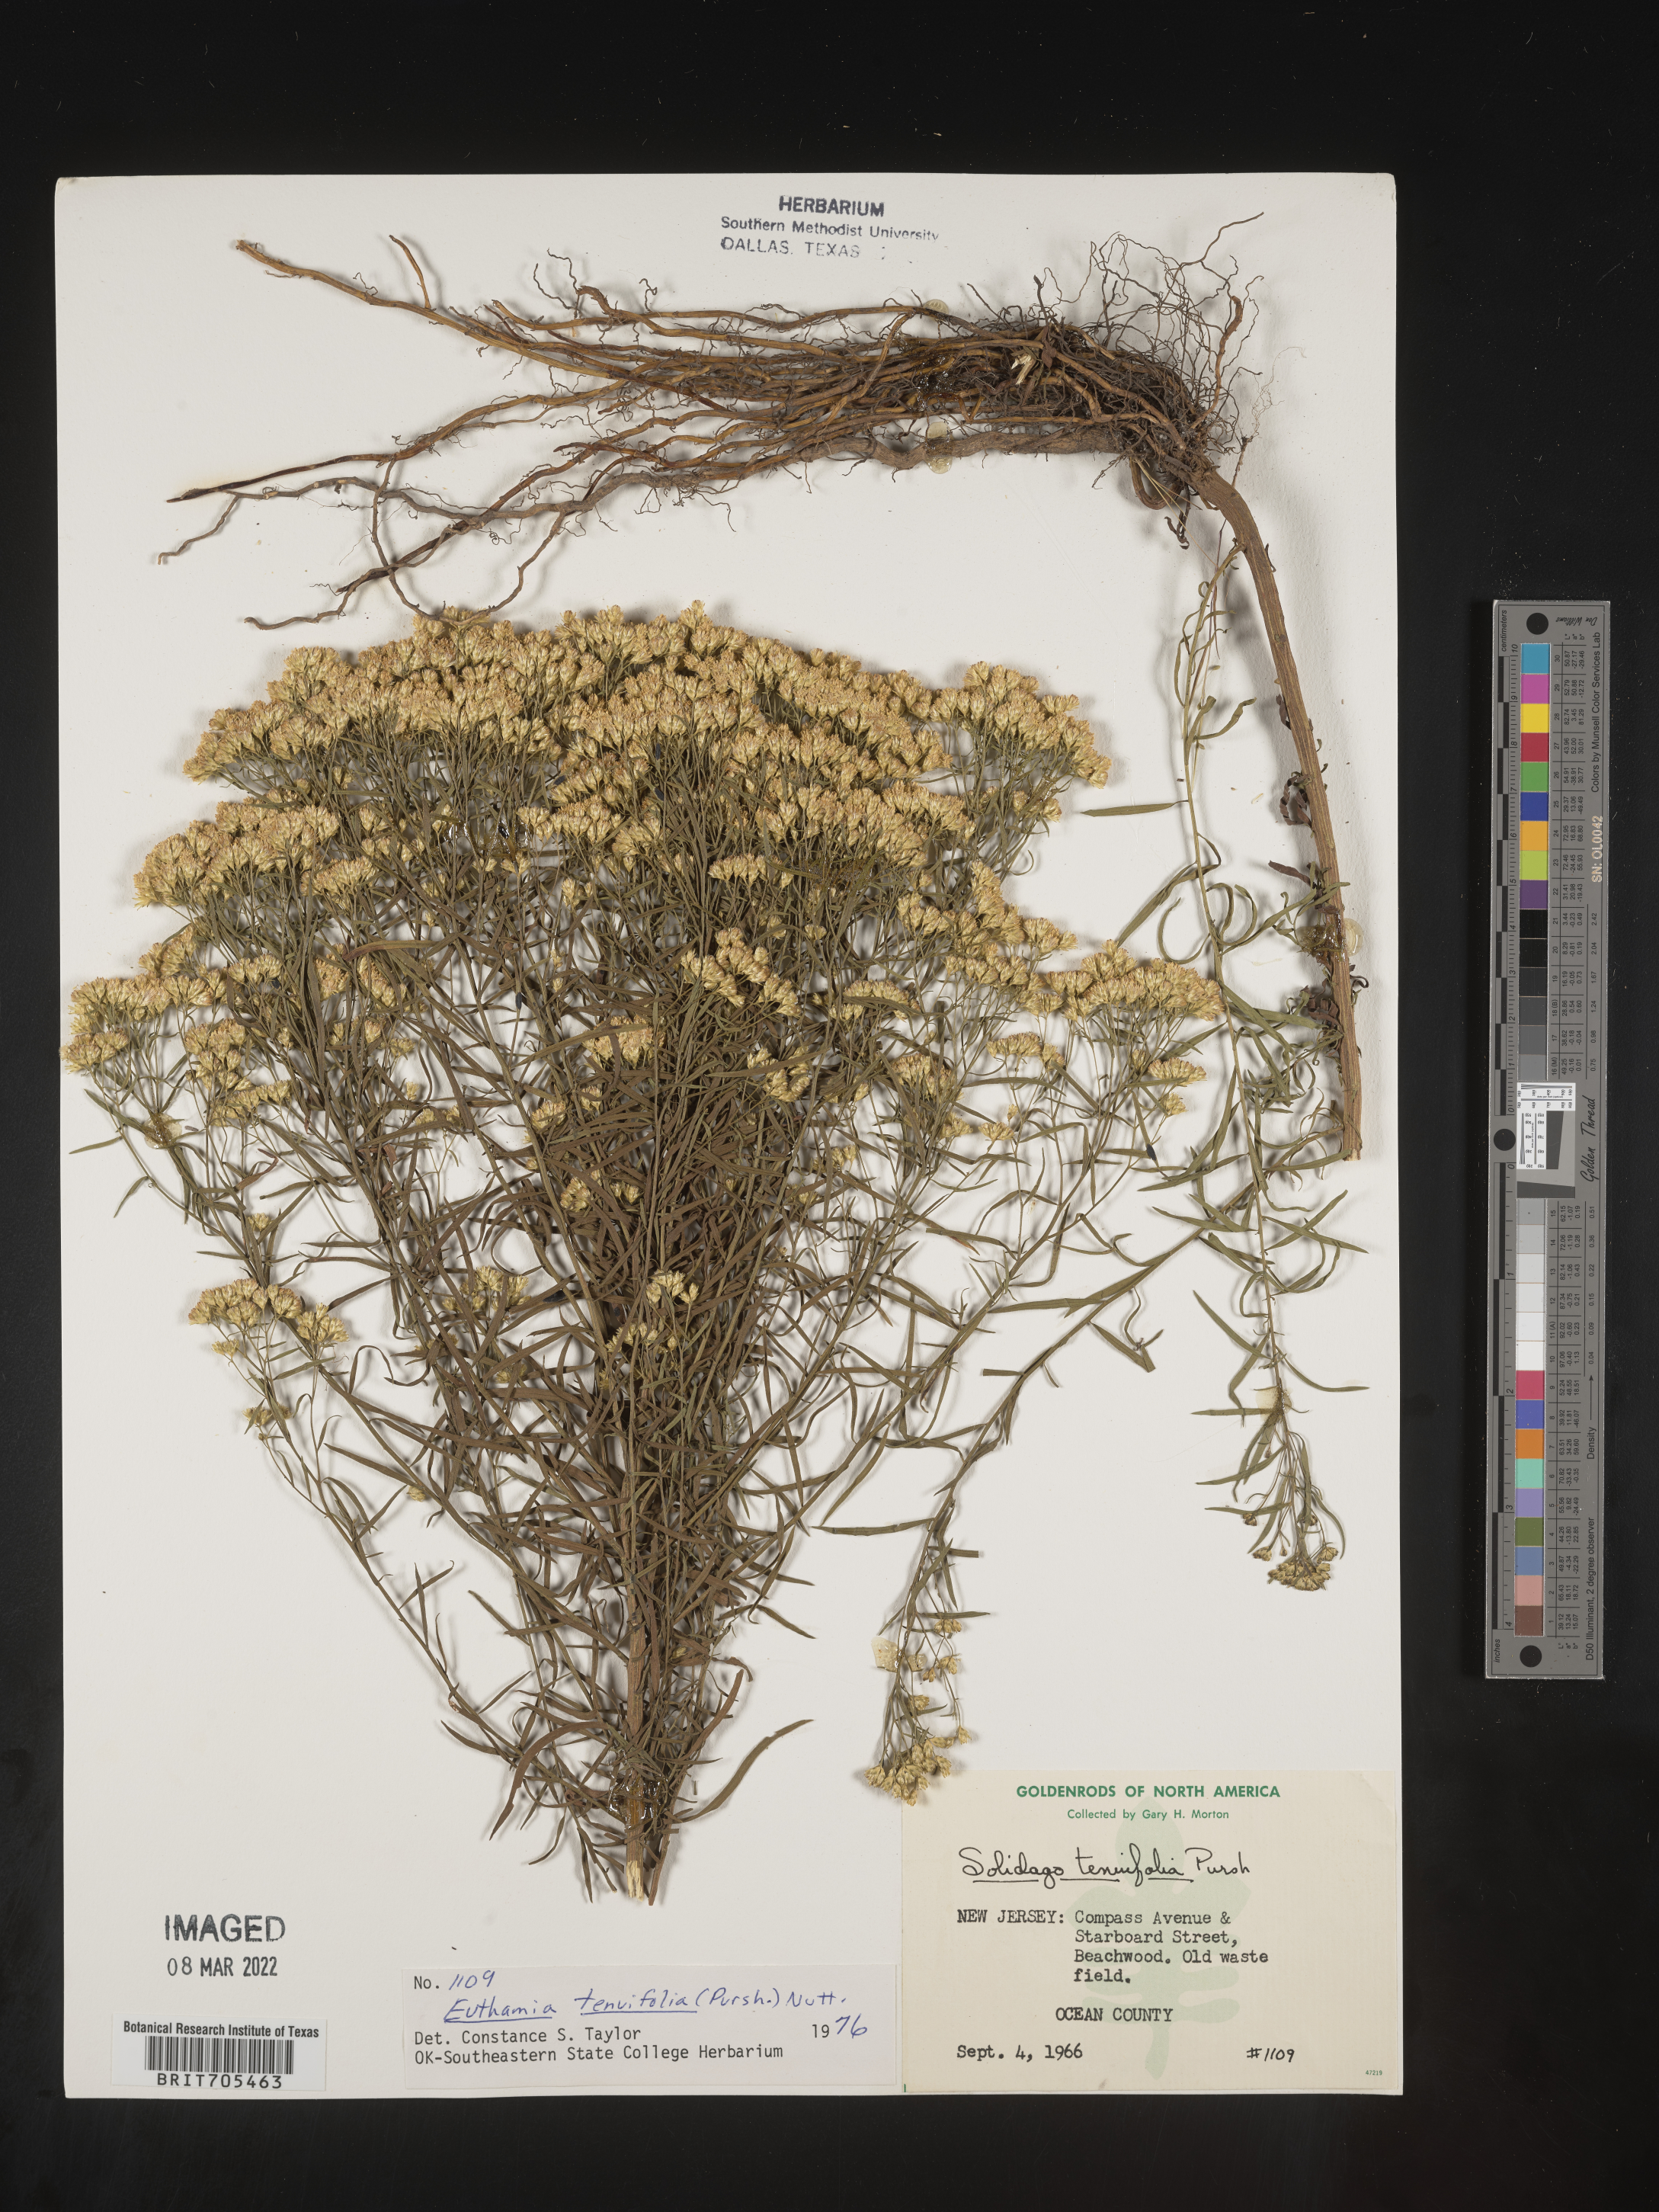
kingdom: Plantae
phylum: Tracheophyta
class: Magnoliopsida
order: Asterales
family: Asteraceae
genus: Euthamia
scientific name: Euthamia caroliniana
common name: Coastal plain goldentop
